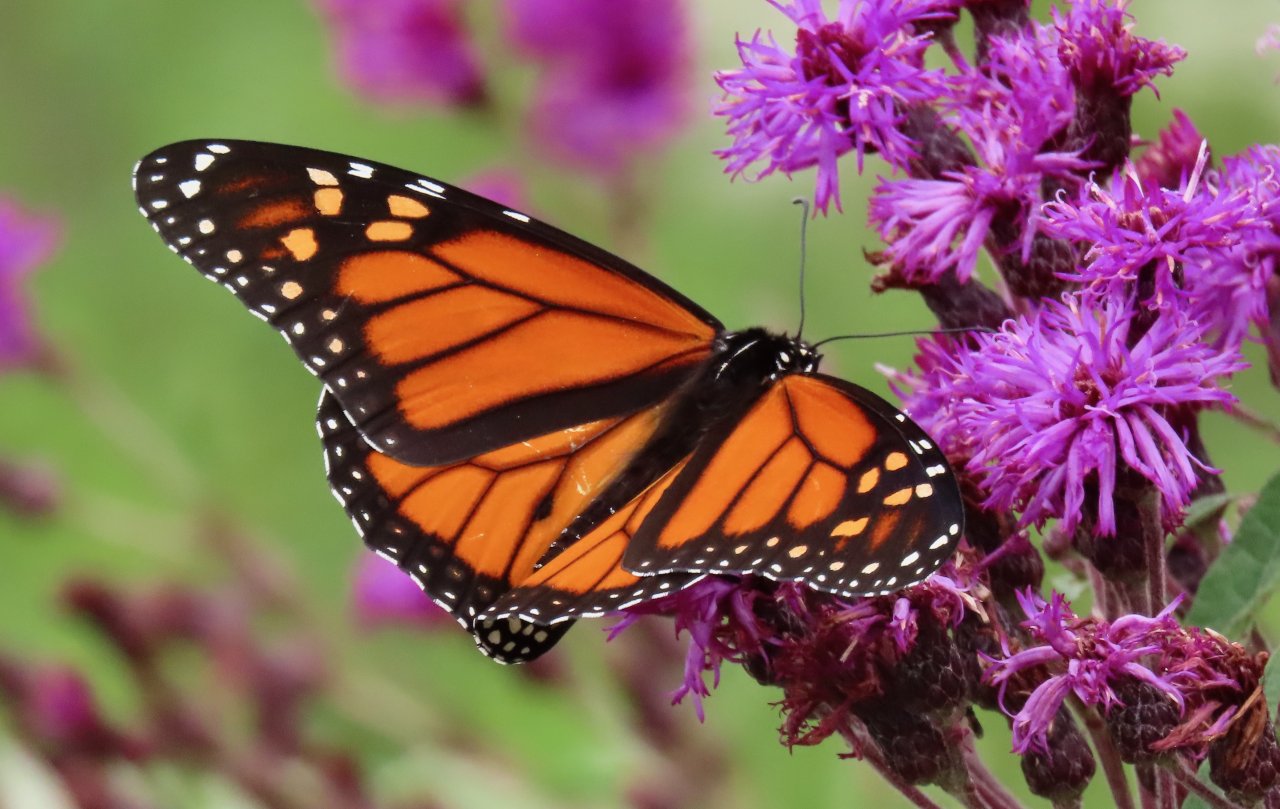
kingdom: Animalia
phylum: Arthropoda
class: Insecta
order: Lepidoptera
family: Nymphalidae
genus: Danaus
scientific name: Danaus plexippus
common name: Monarch
